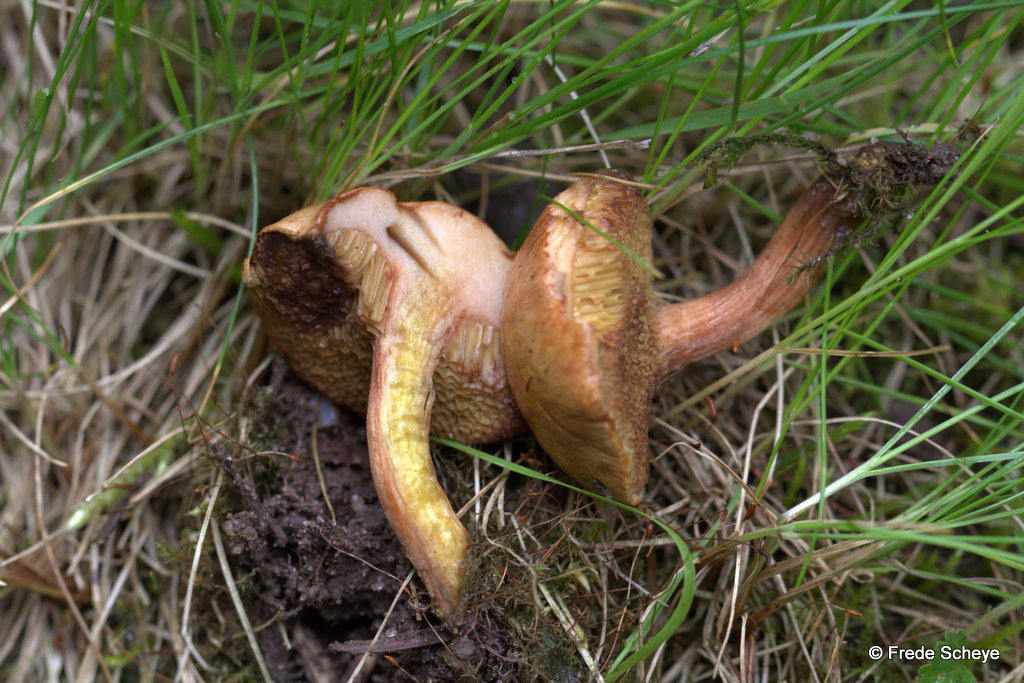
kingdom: Fungi
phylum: Basidiomycota
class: Agaricomycetes
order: Boletales
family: Boletaceae
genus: Chalciporus
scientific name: Chalciporus piperatus
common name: peberrørhat
